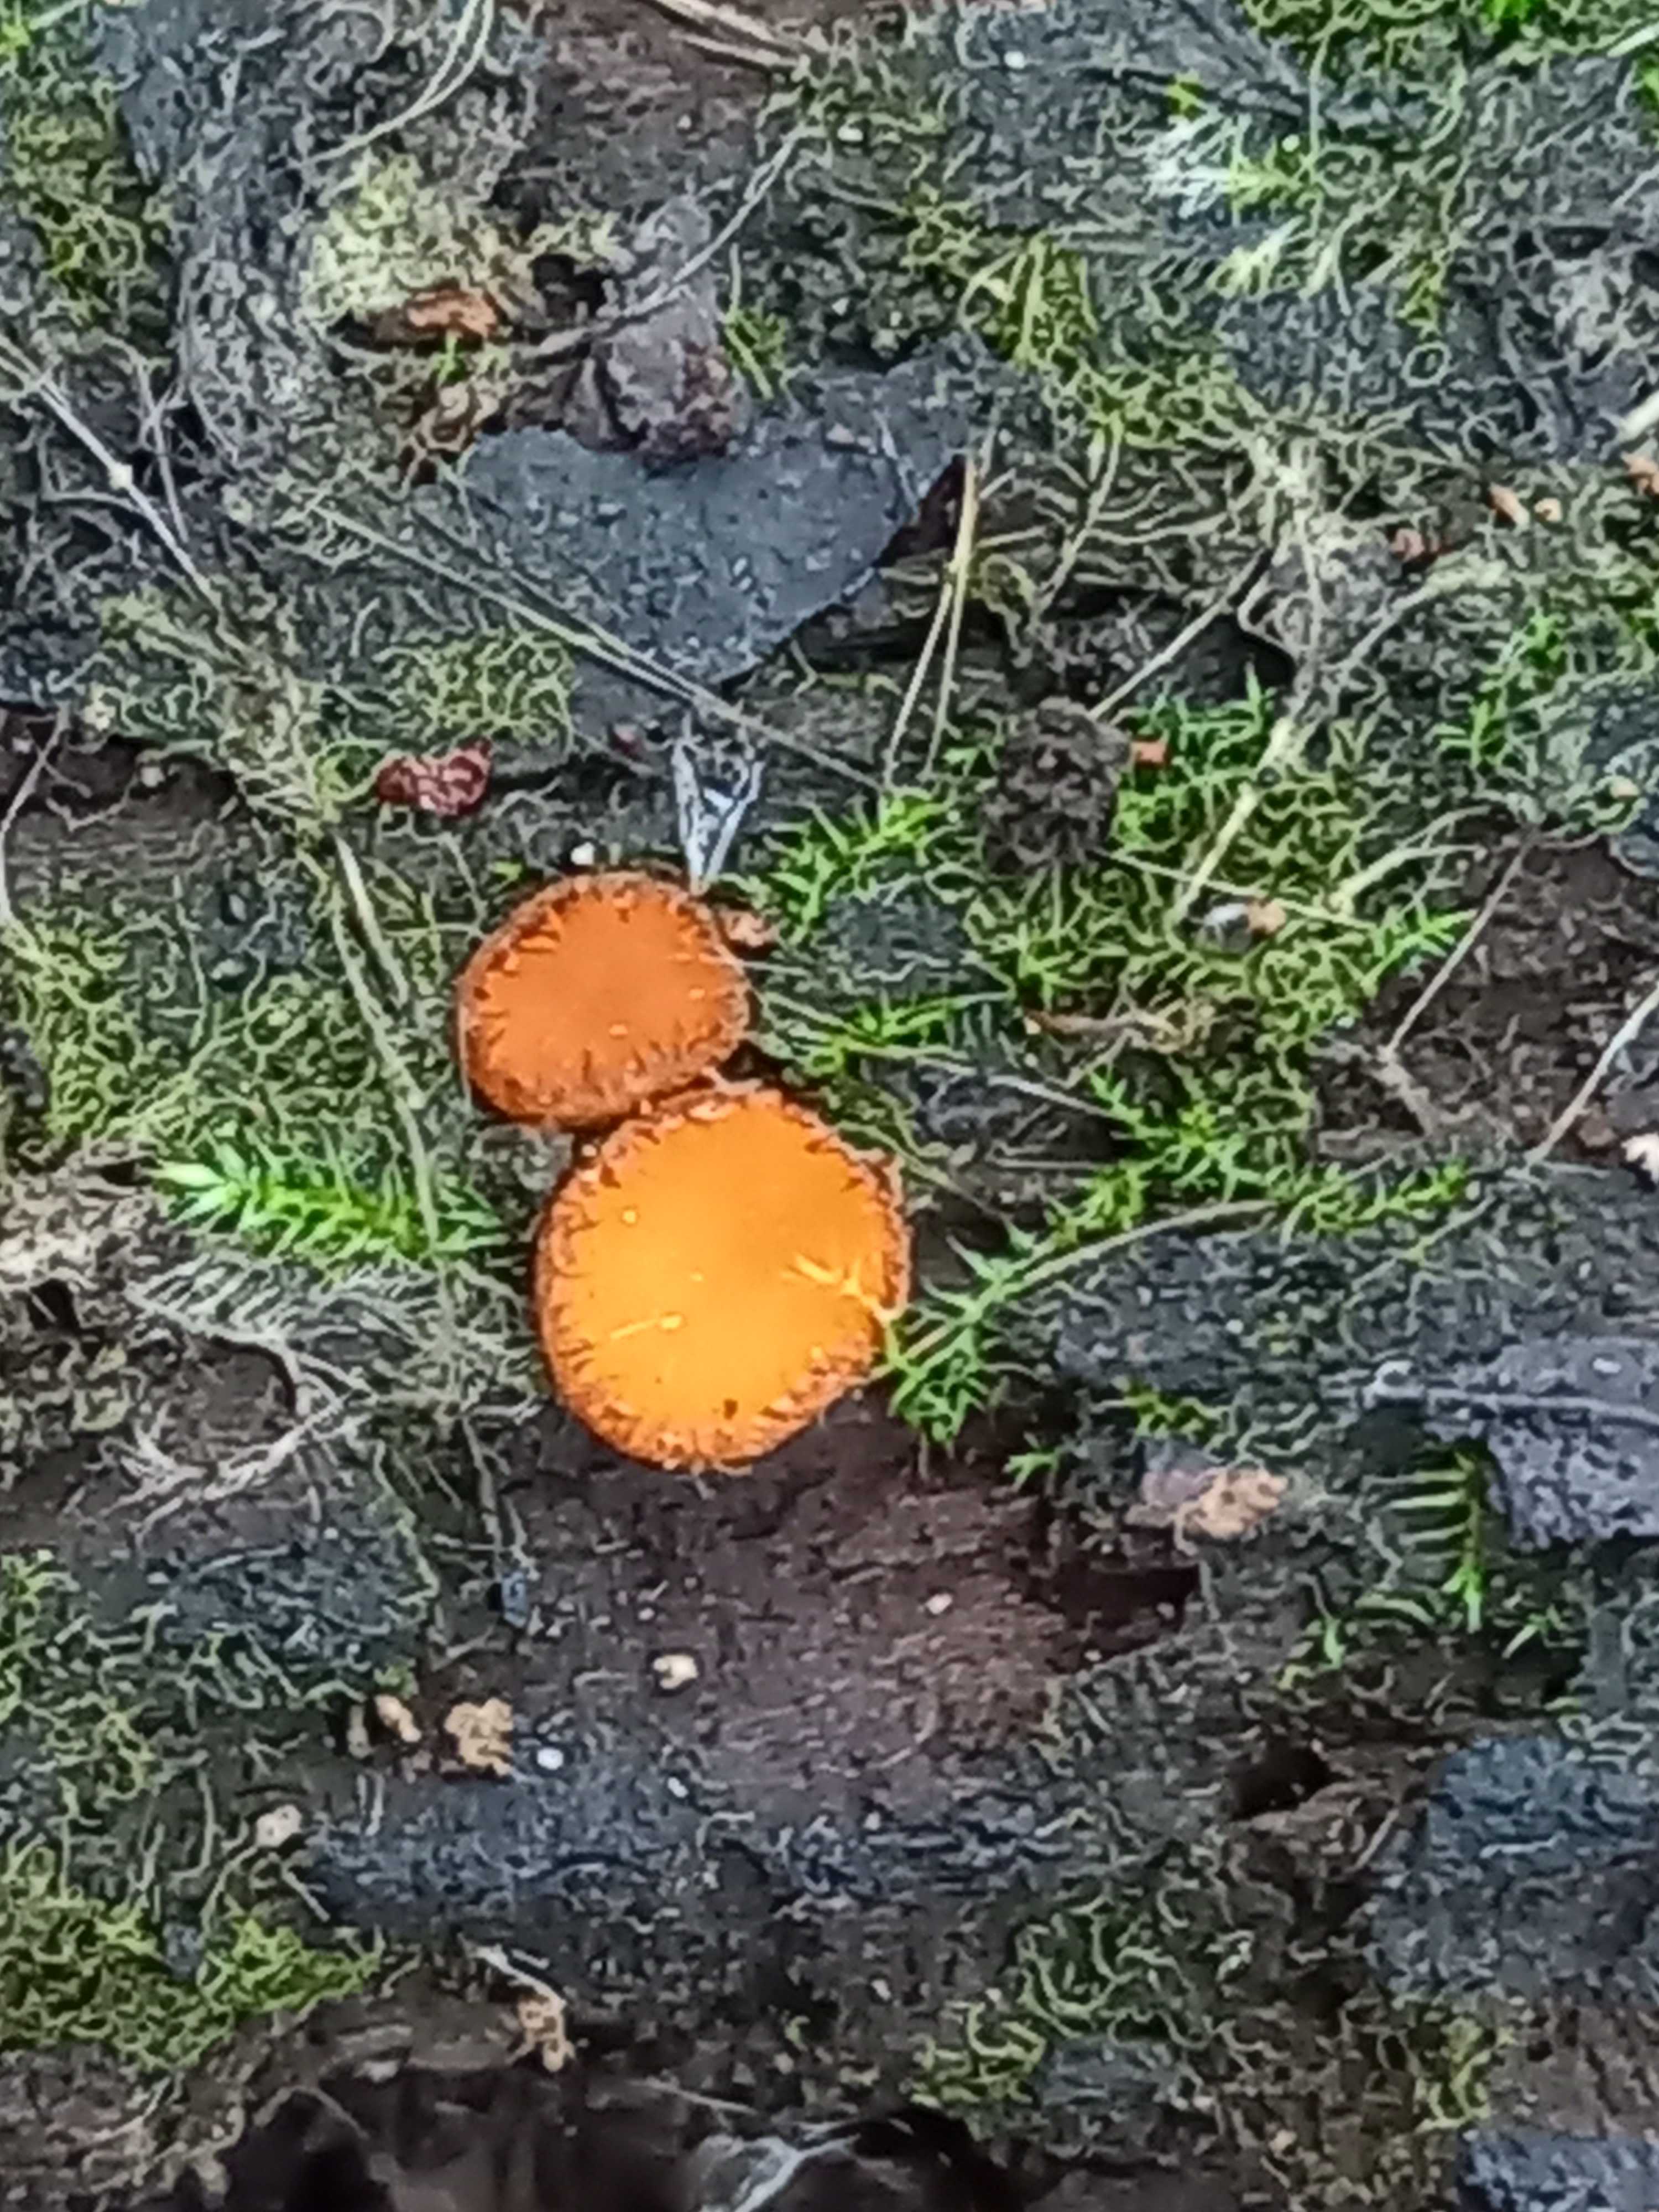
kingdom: Fungi
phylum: Ascomycota
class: Pezizomycetes
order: Pezizales
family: Pyronemataceae
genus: Scutellinia
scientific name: Scutellinia
